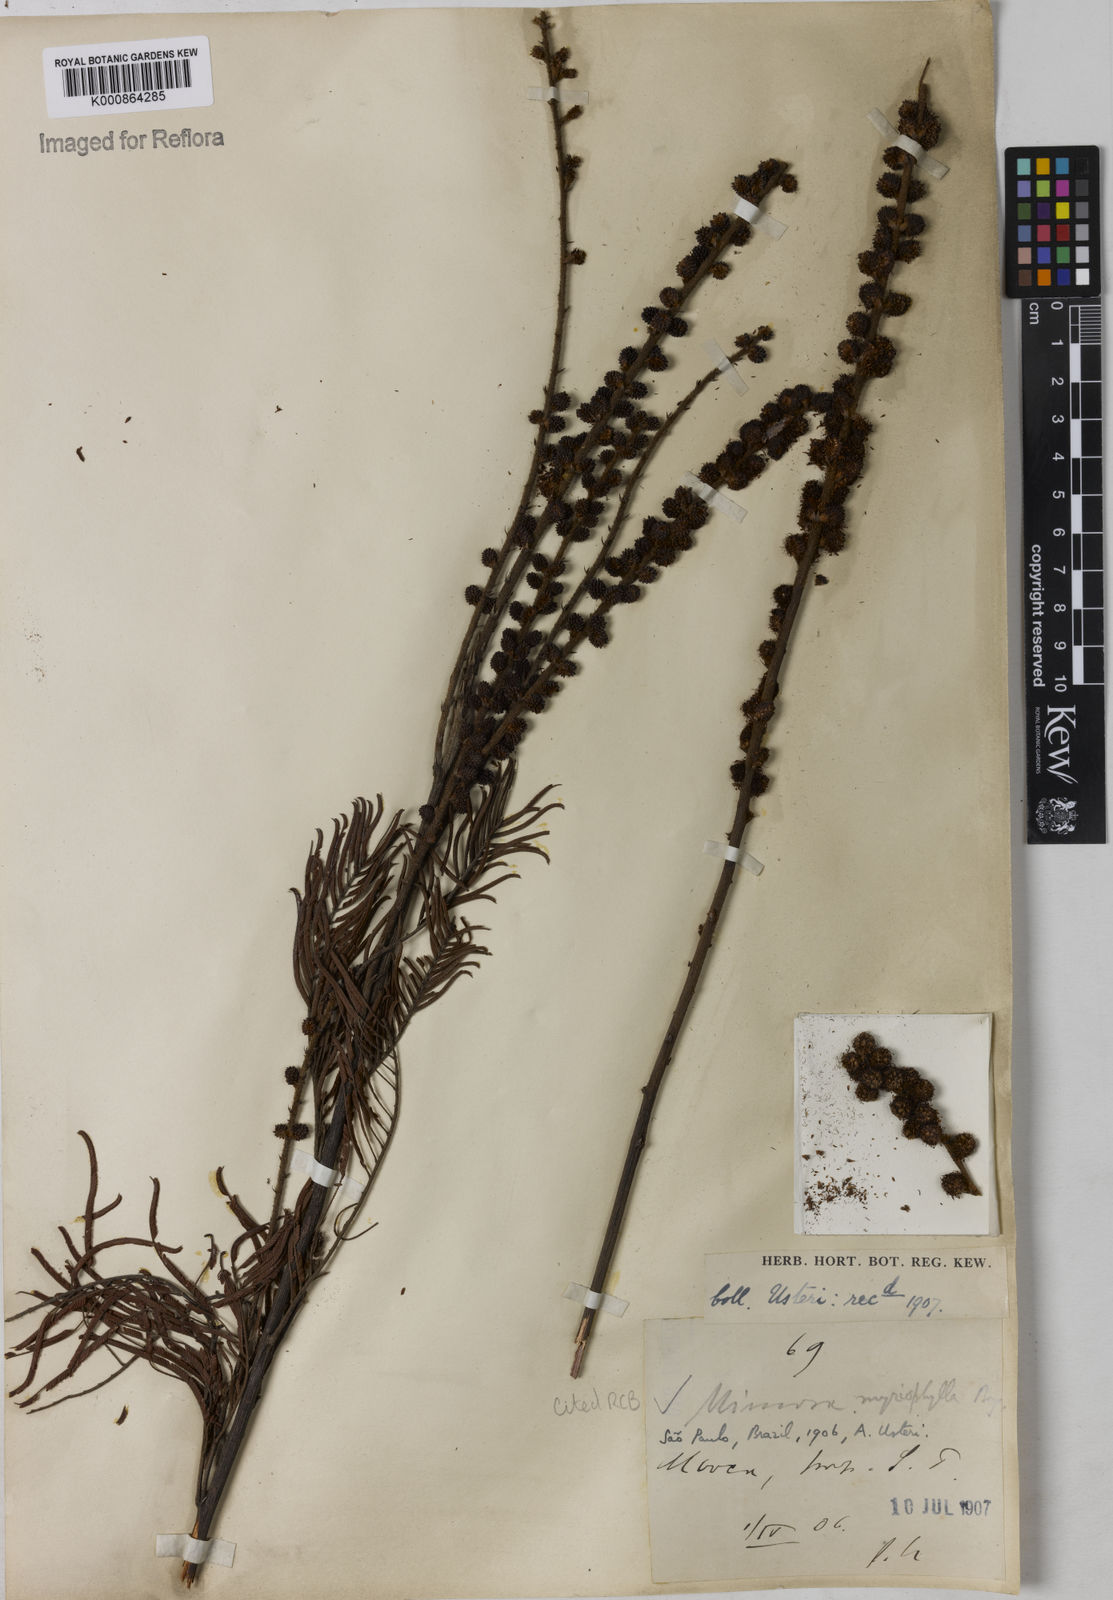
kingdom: Plantae
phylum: Tracheophyta
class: Magnoliopsida
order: Fabales
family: Fabaceae
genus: Mimosa
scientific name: Mimosa
